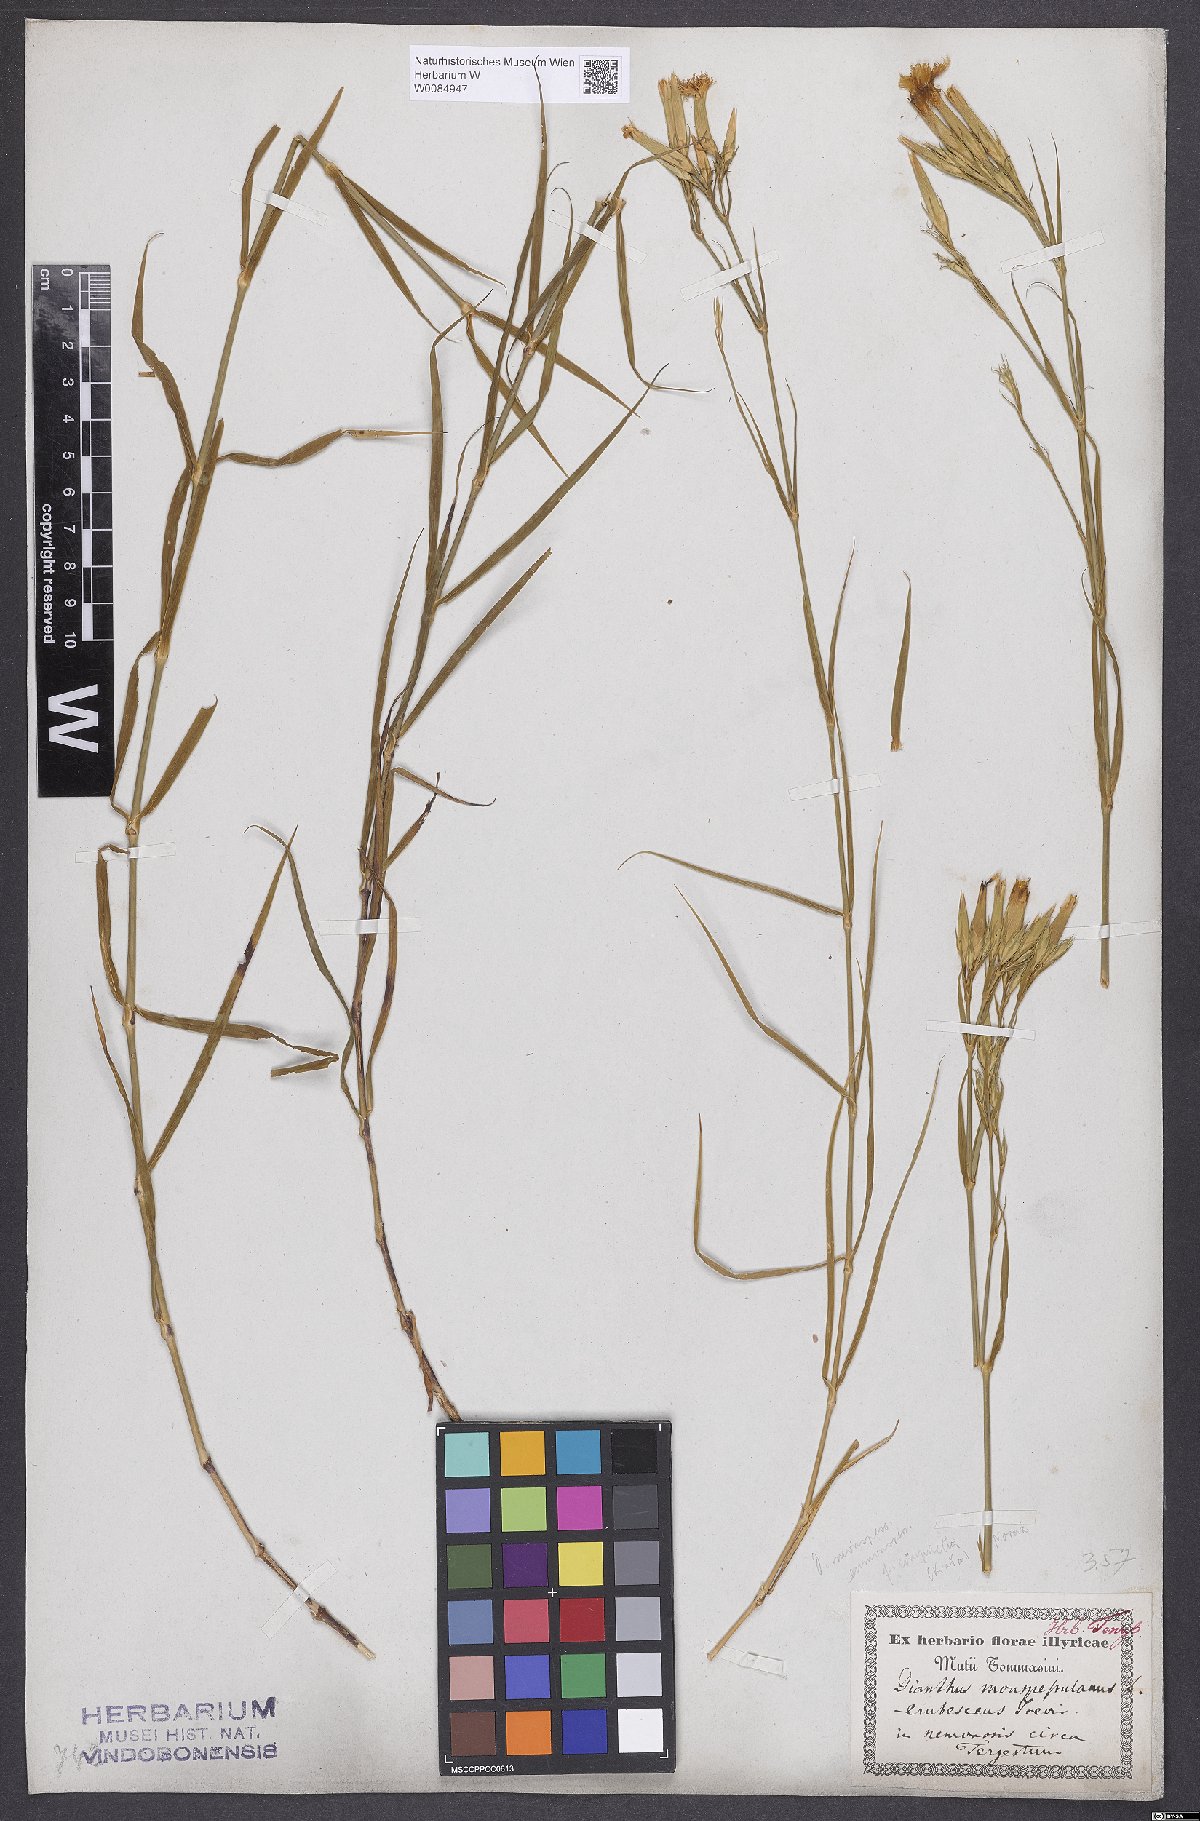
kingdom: Plantae
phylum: Tracheophyta
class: Magnoliopsida
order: Caryophyllales
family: Caryophyllaceae
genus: Dianthus
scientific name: Dianthus hyssopifolius
